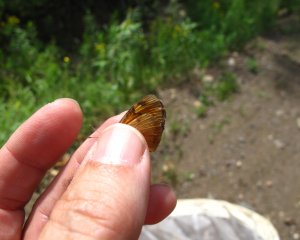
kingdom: Animalia
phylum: Arthropoda
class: Insecta
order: Lepidoptera
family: Nymphalidae
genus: Phyciodes
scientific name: Phyciodes tharos
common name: Northern Crescent
